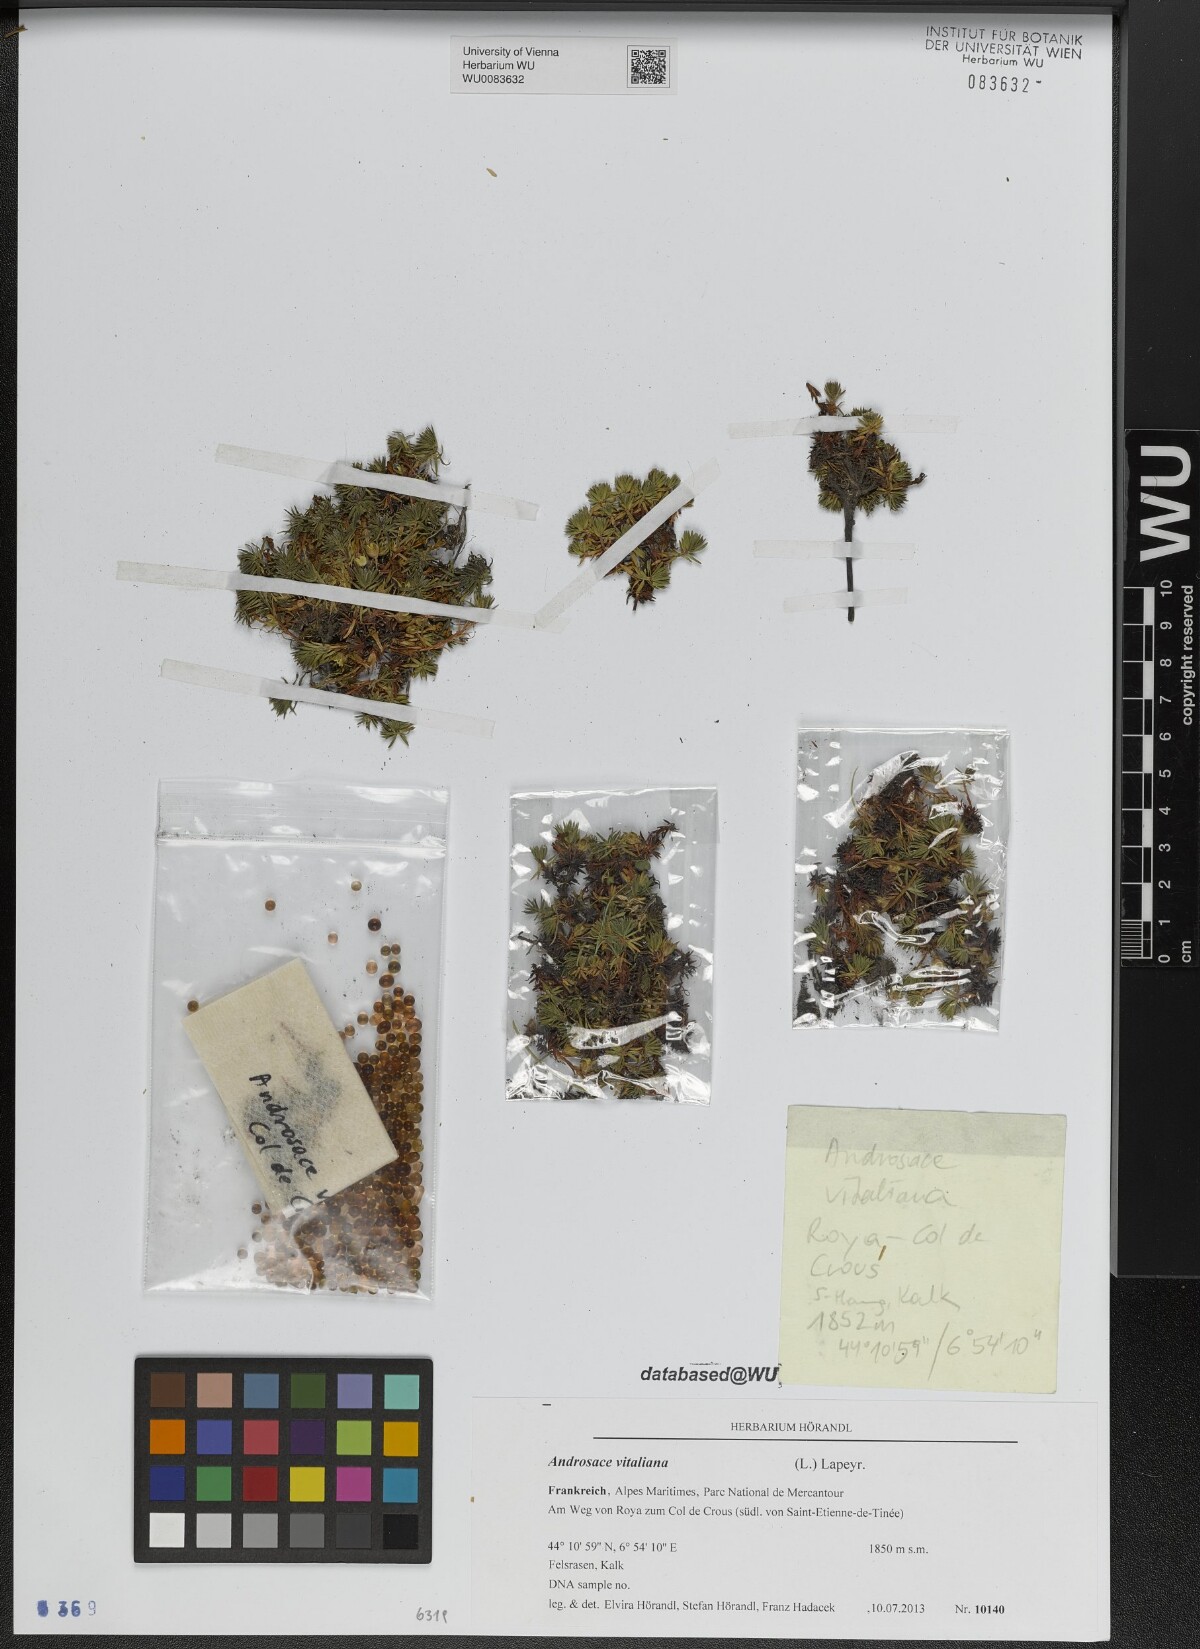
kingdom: Plantae
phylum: Tracheophyta
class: Magnoliopsida
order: Ericales
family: Primulaceae
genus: Androsace
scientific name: Androsace vitaliana
